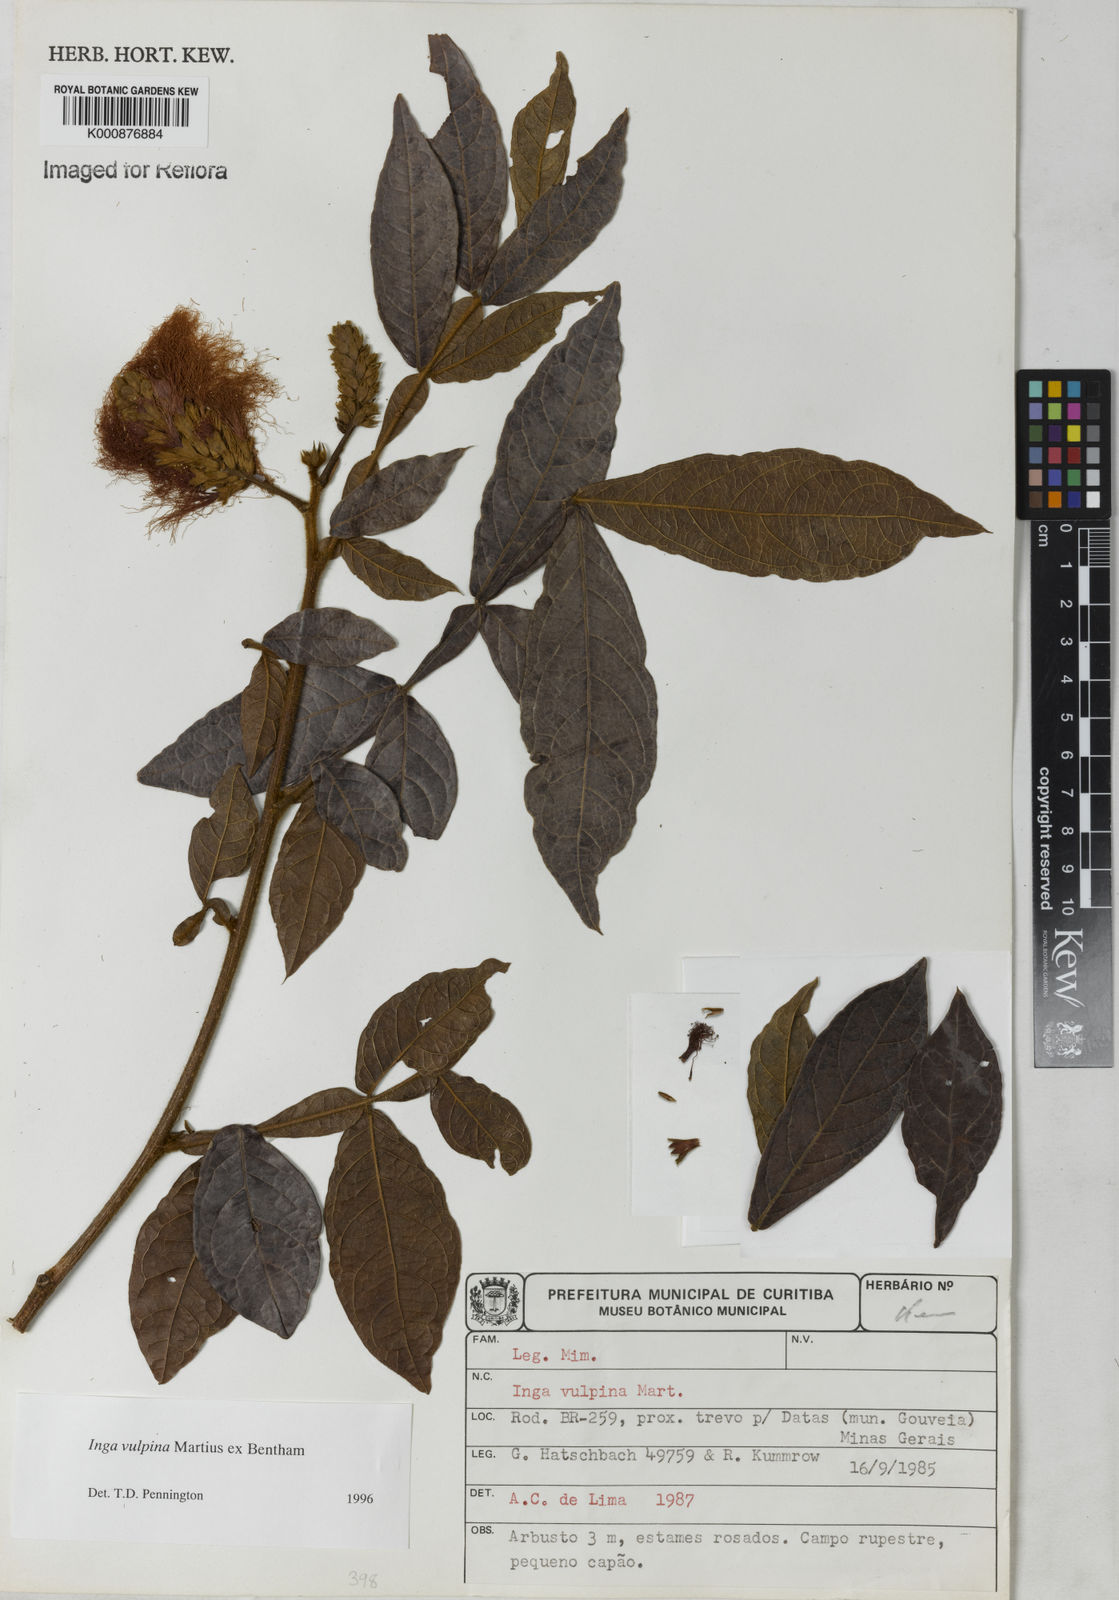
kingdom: Plantae
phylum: Tracheophyta
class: Magnoliopsida
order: Fabales
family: Fabaceae
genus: Inga
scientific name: Inga vulpina
